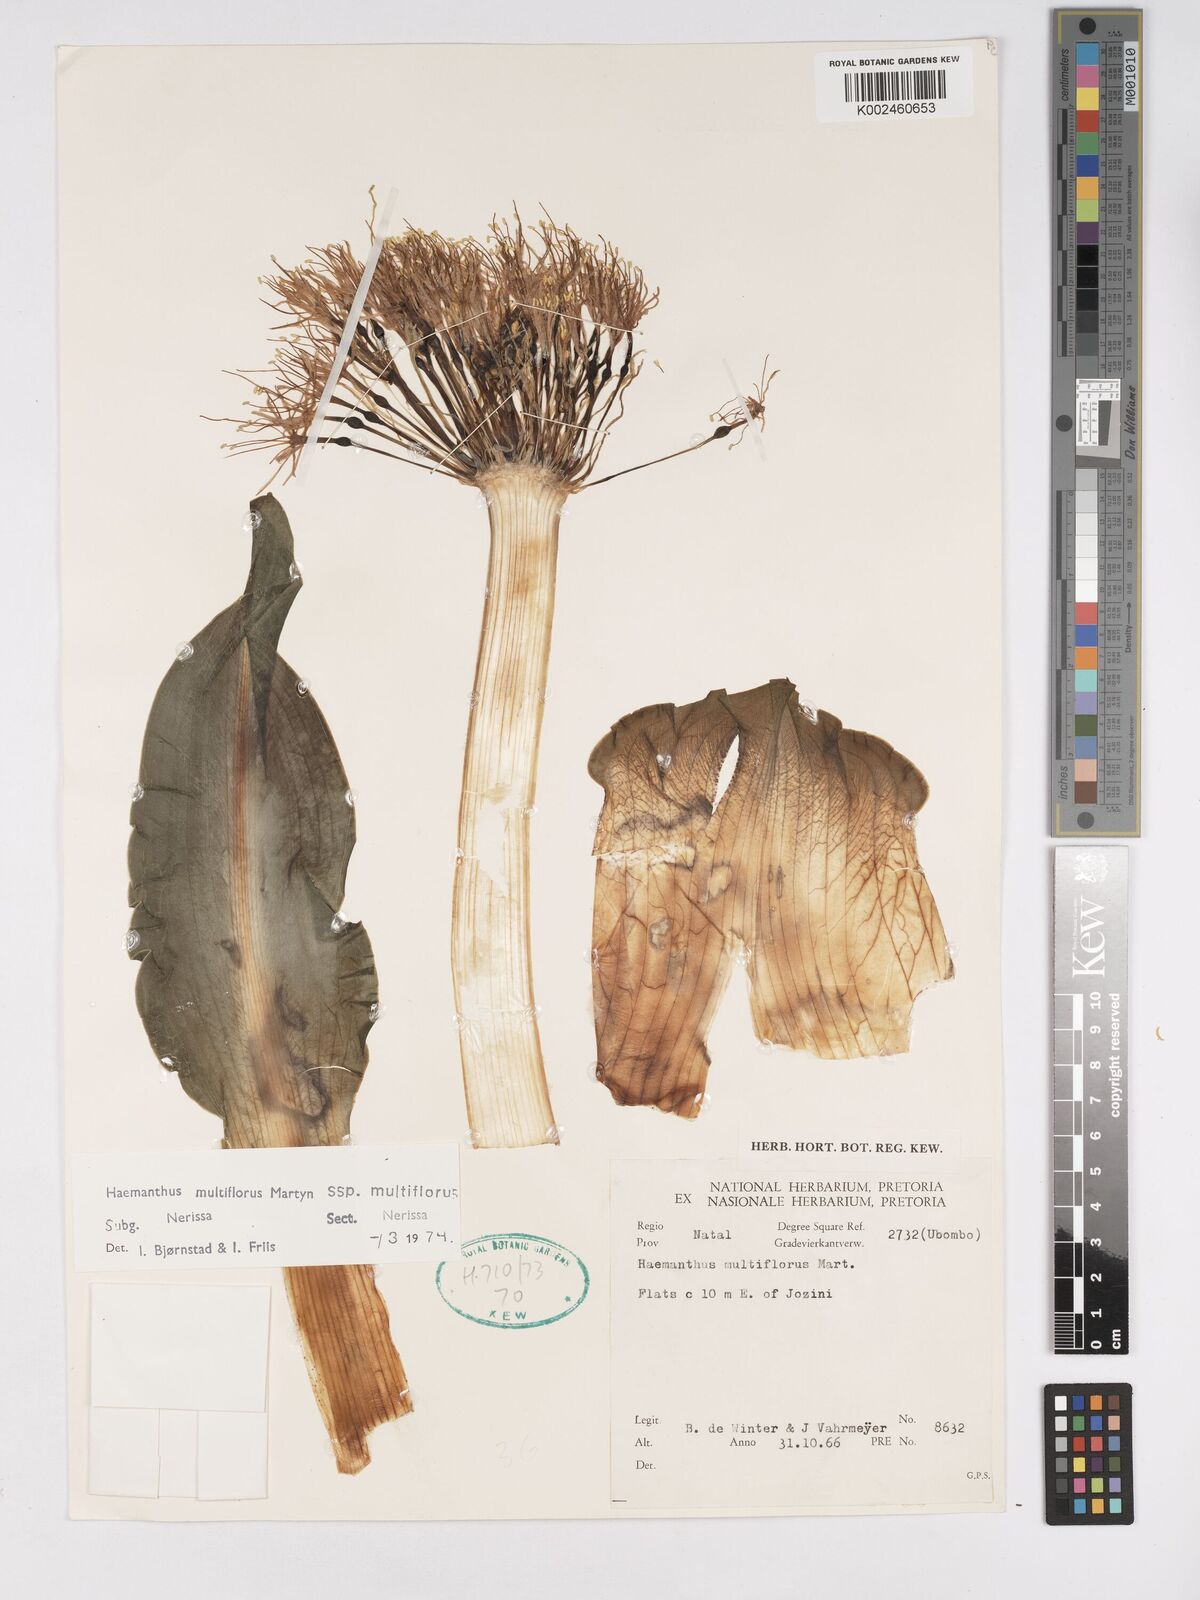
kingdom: Plantae
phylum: Tracheophyta
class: Liliopsida
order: Asparagales
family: Amaryllidaceae
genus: Scadoxus
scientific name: Scadoxus multiflorus
